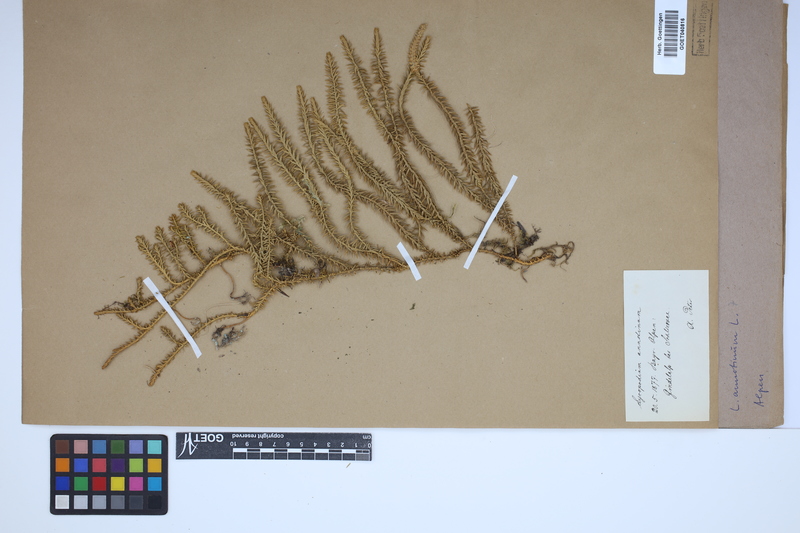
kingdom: Plantae
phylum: Tracheophyta
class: Lycopodiopsida
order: Lycopodiales
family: Lycopodiaceae
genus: Spinulum
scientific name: Spinulum annotinum
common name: Interrupted club-moss
